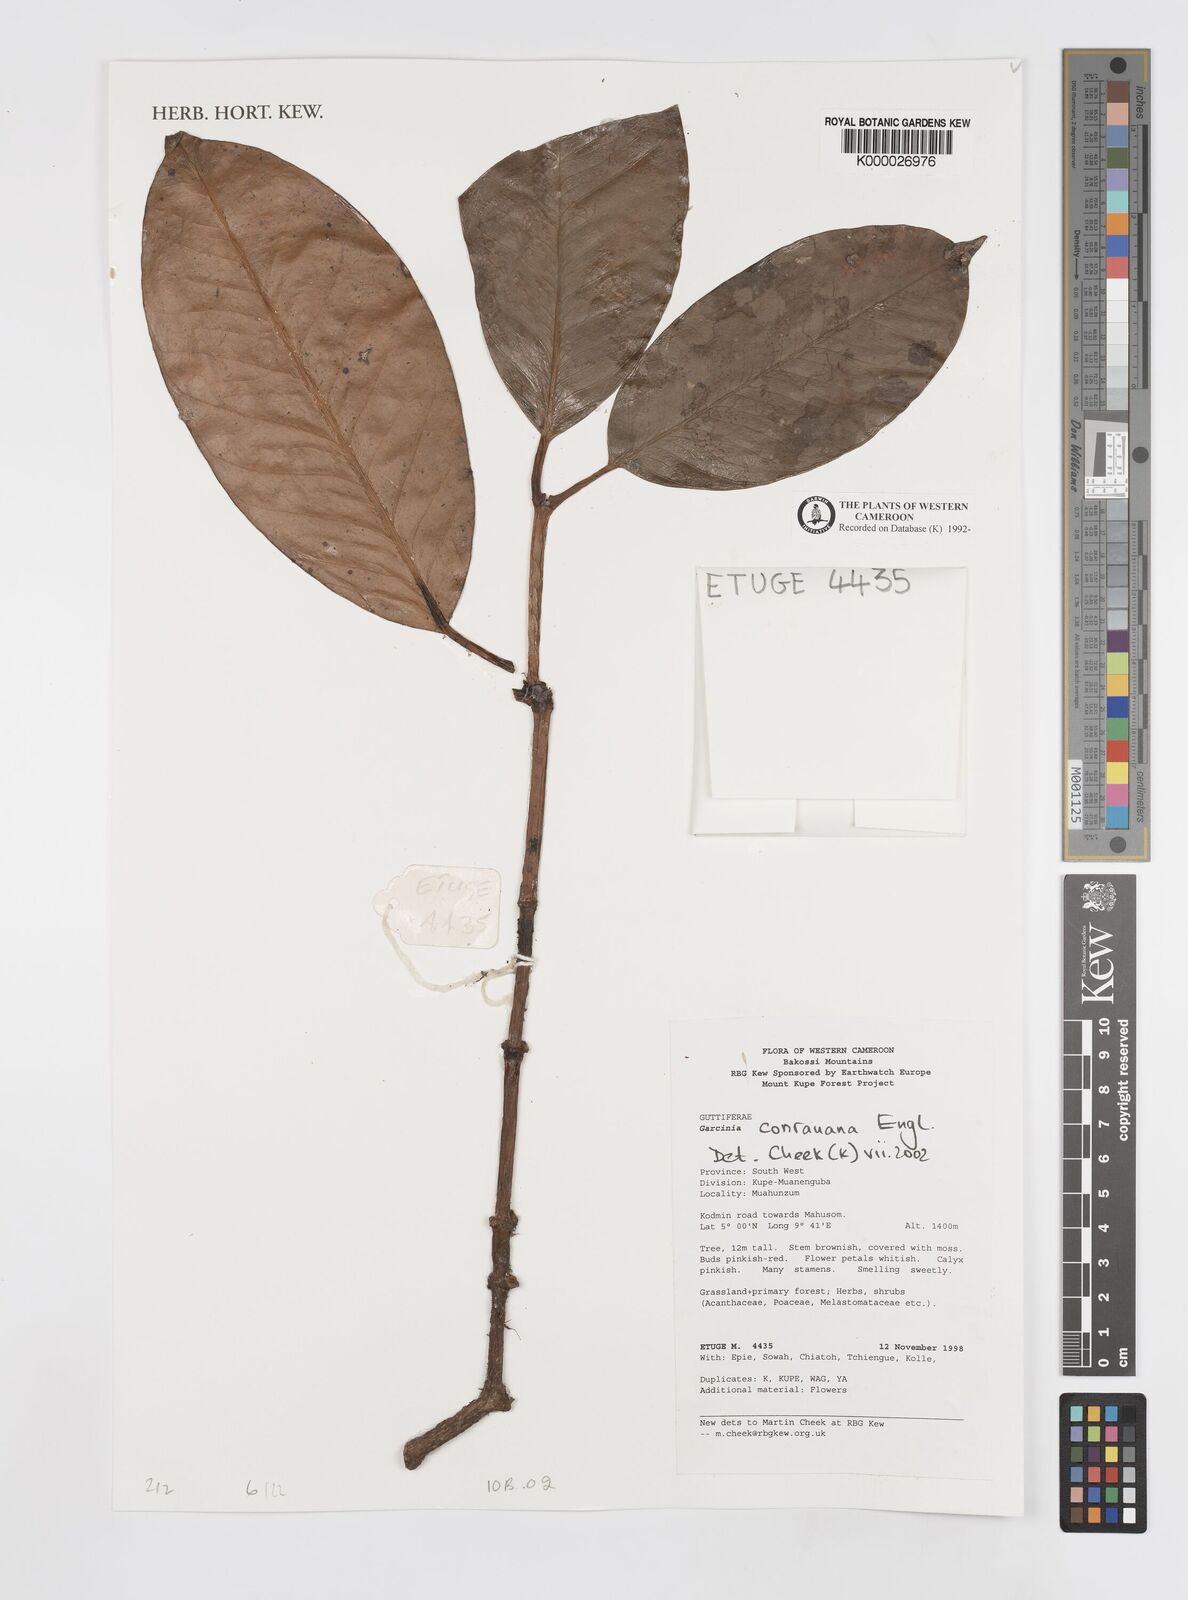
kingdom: Plantae
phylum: Tracheophyta
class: Magnoliopsida
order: Malpighiales
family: Clusiaceae
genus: Garcinia
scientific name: Garcinia conrauana
